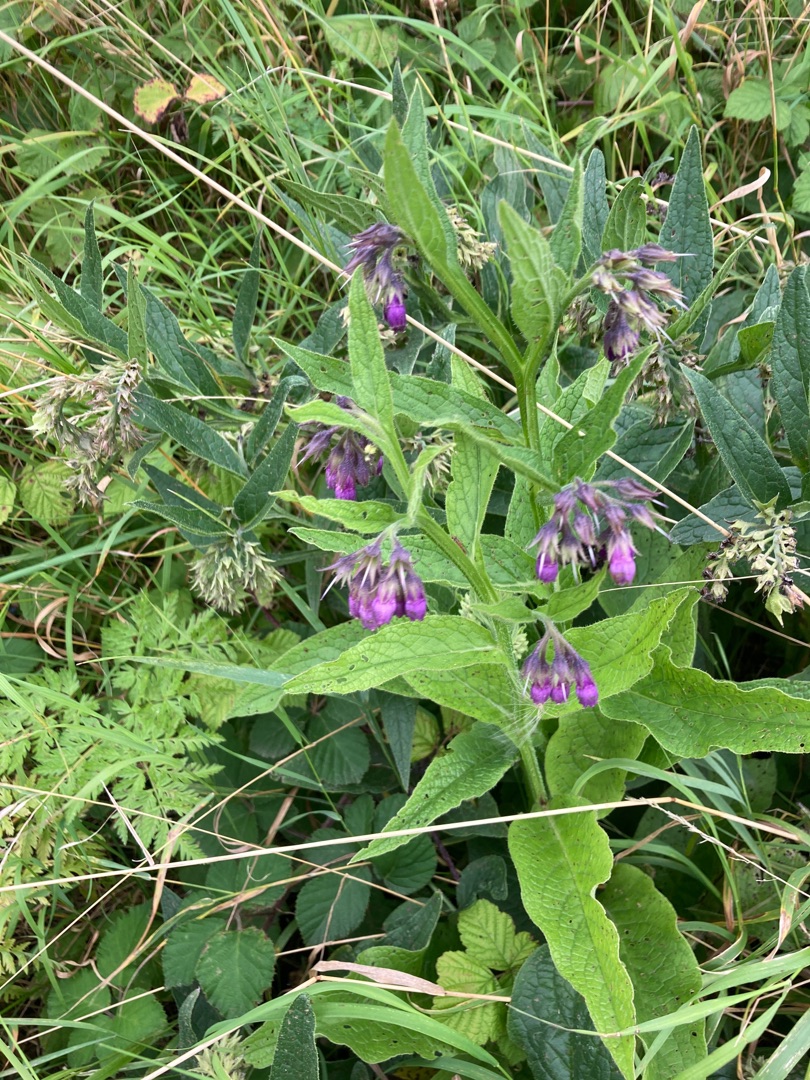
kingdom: Plantae
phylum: Tracheophyta
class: Magnoliopsida
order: Boraginales
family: Boraginaceae
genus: Symphytum
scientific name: Symphytum officinale
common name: Læge-kulsukker
